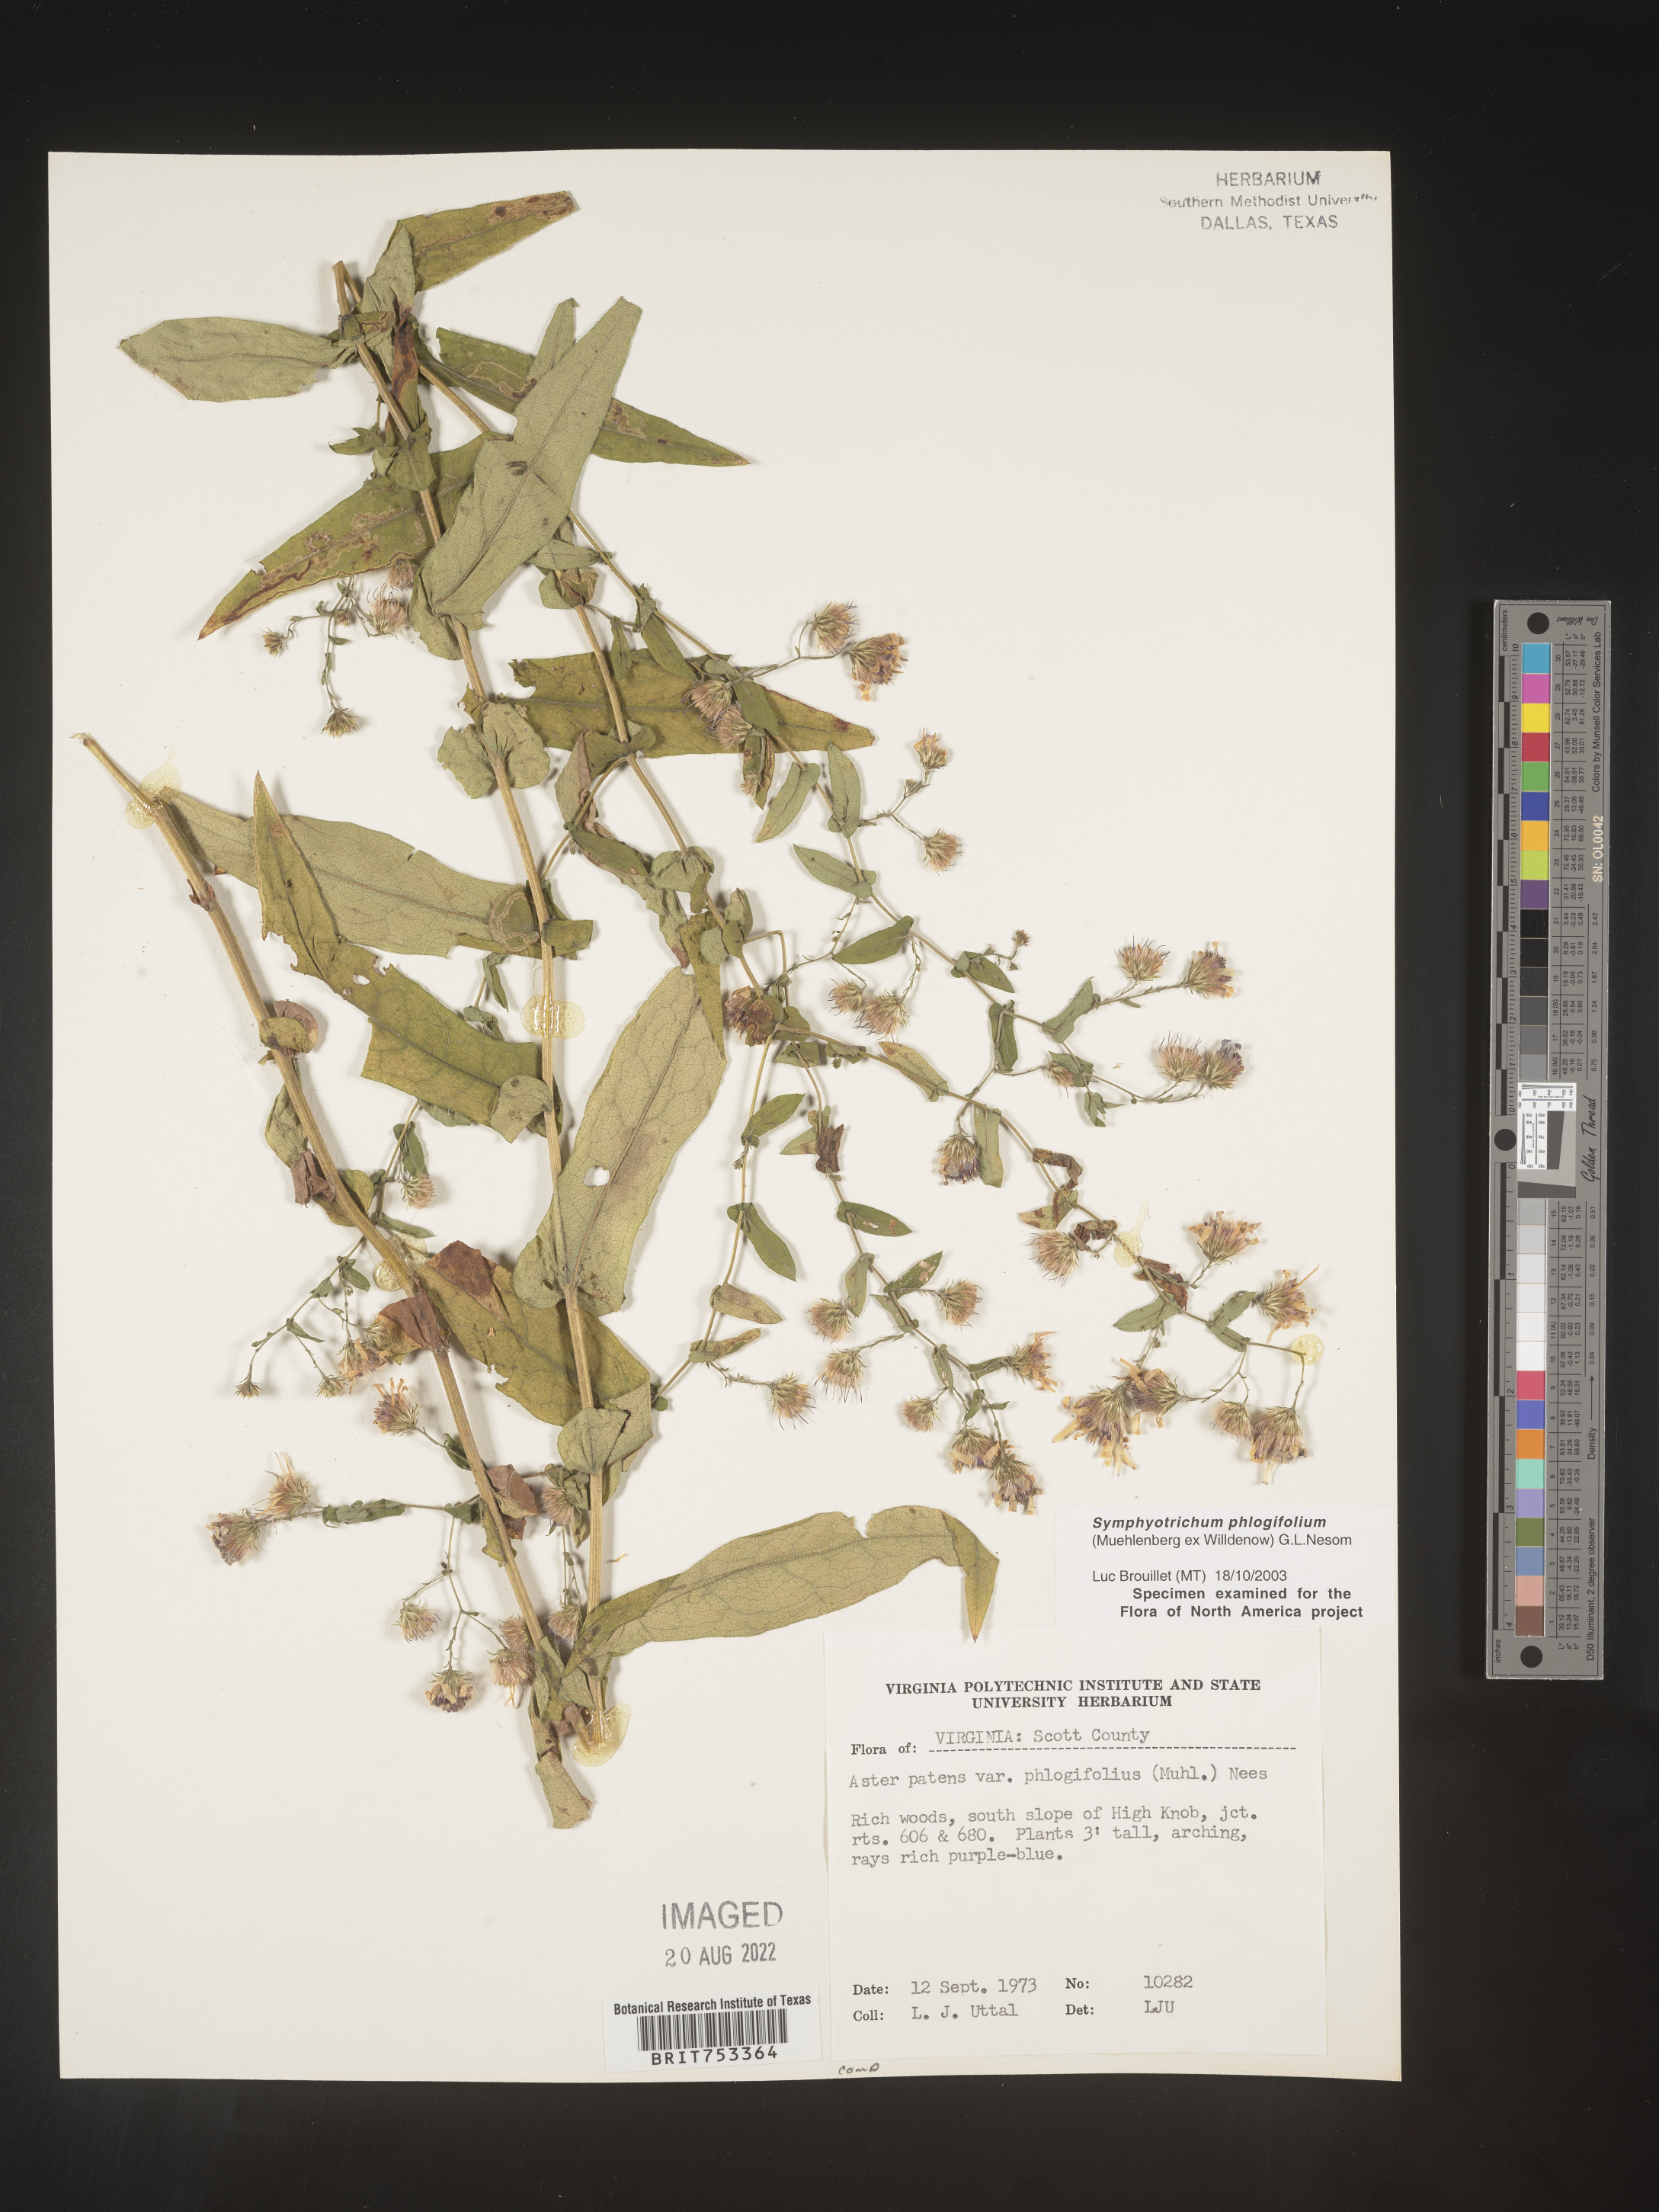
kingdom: Plantae
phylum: Tracheophyta
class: Magnoliopsida
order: Asterales
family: Asteraceae
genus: Symphyotrichum
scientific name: Symphyotrichum phlogifolium
